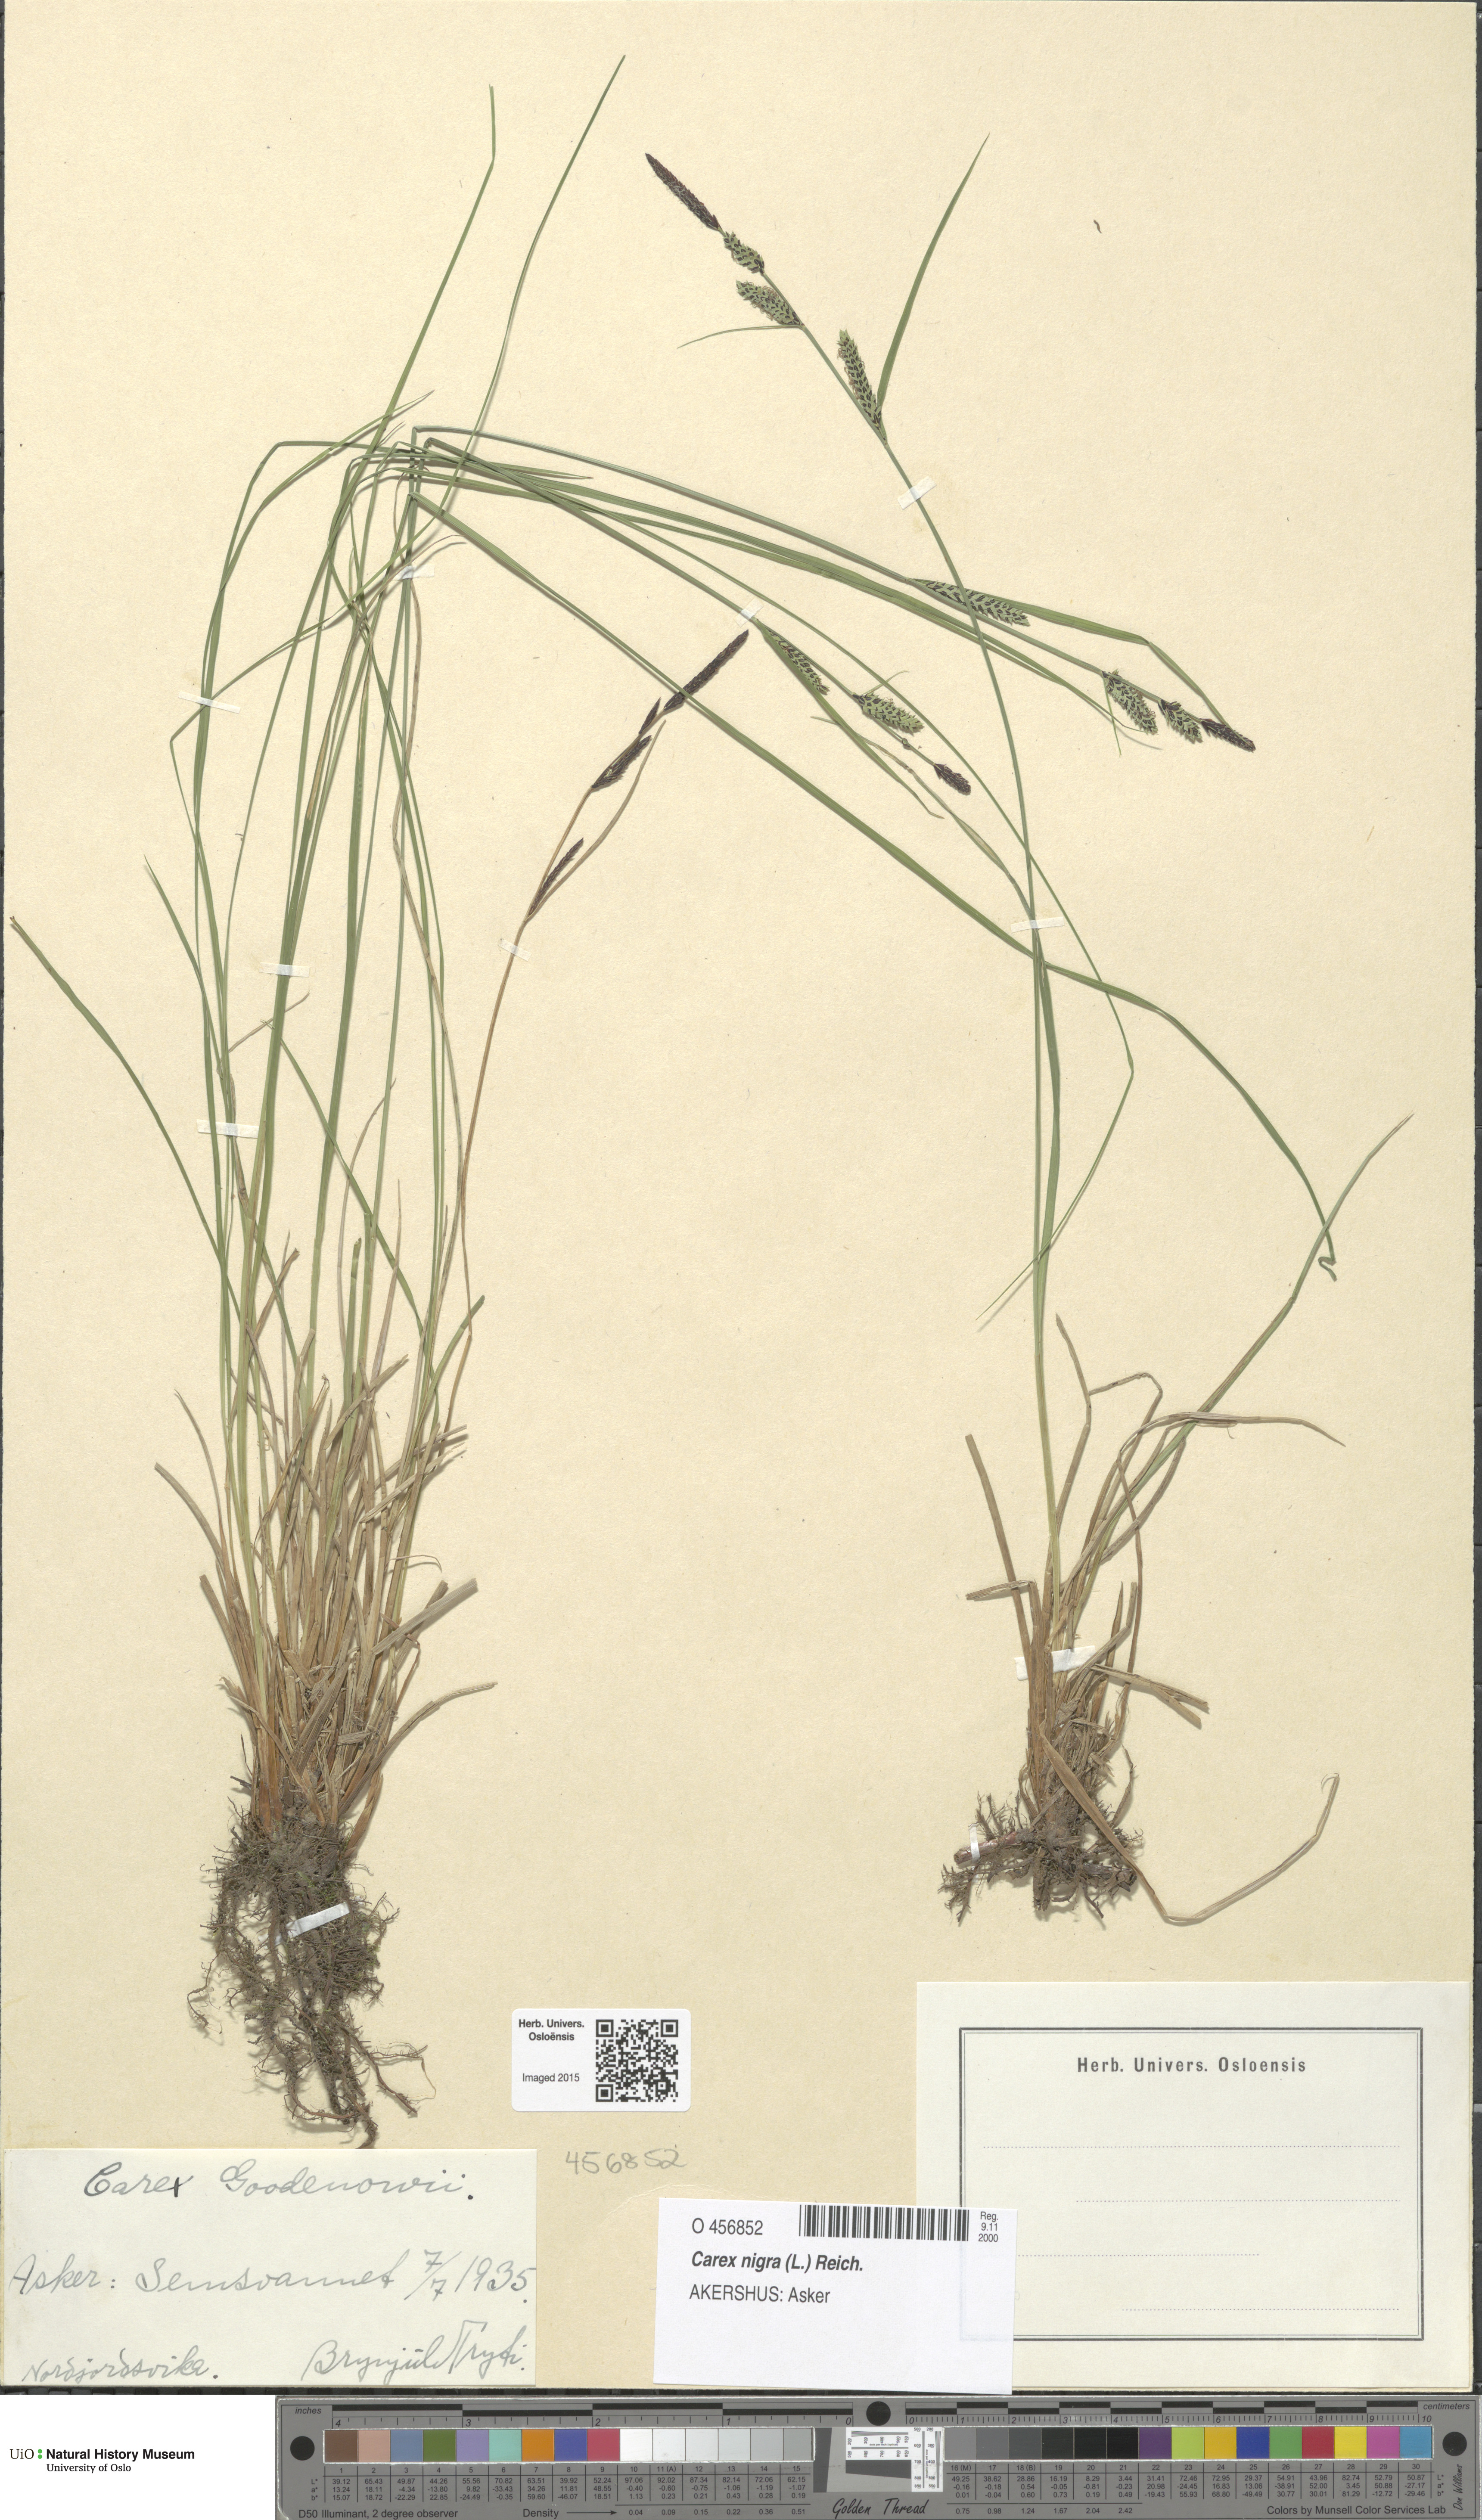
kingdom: Plantae
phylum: Tracheophyta
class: Liliopsida
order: Poales
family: Cyperaceae
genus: Carex
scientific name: Carex nigra
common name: Common sedge
